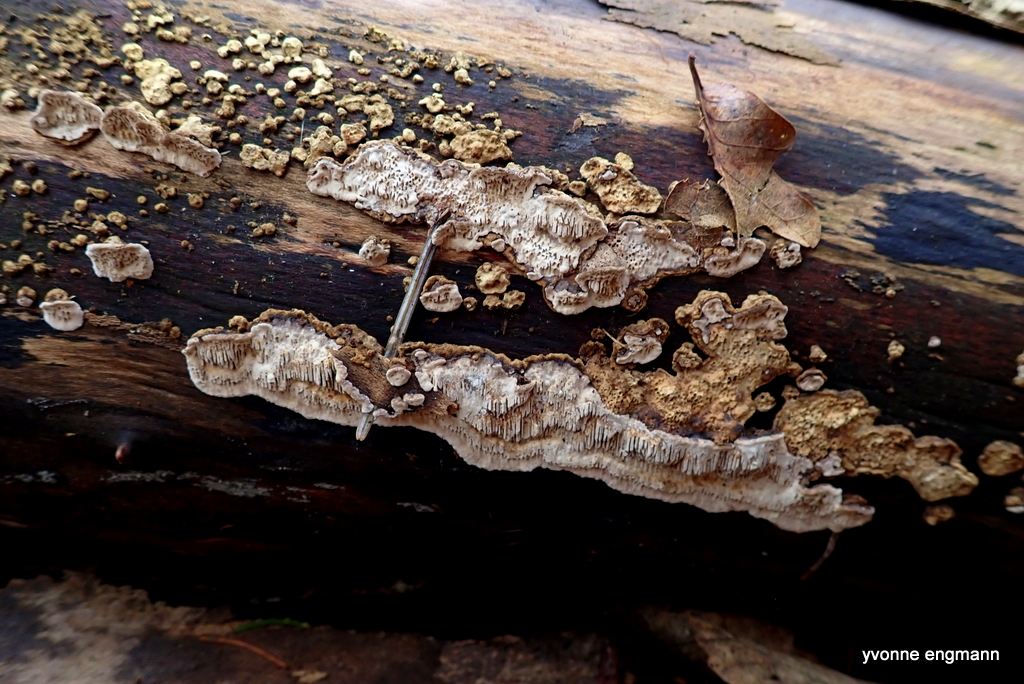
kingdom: Fungi
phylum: Basidiomycota
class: Agaricomycetes
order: Polyporales
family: Polyporaceae
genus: Podofomes
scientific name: Podofomes mollis
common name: blød begporesvamp
